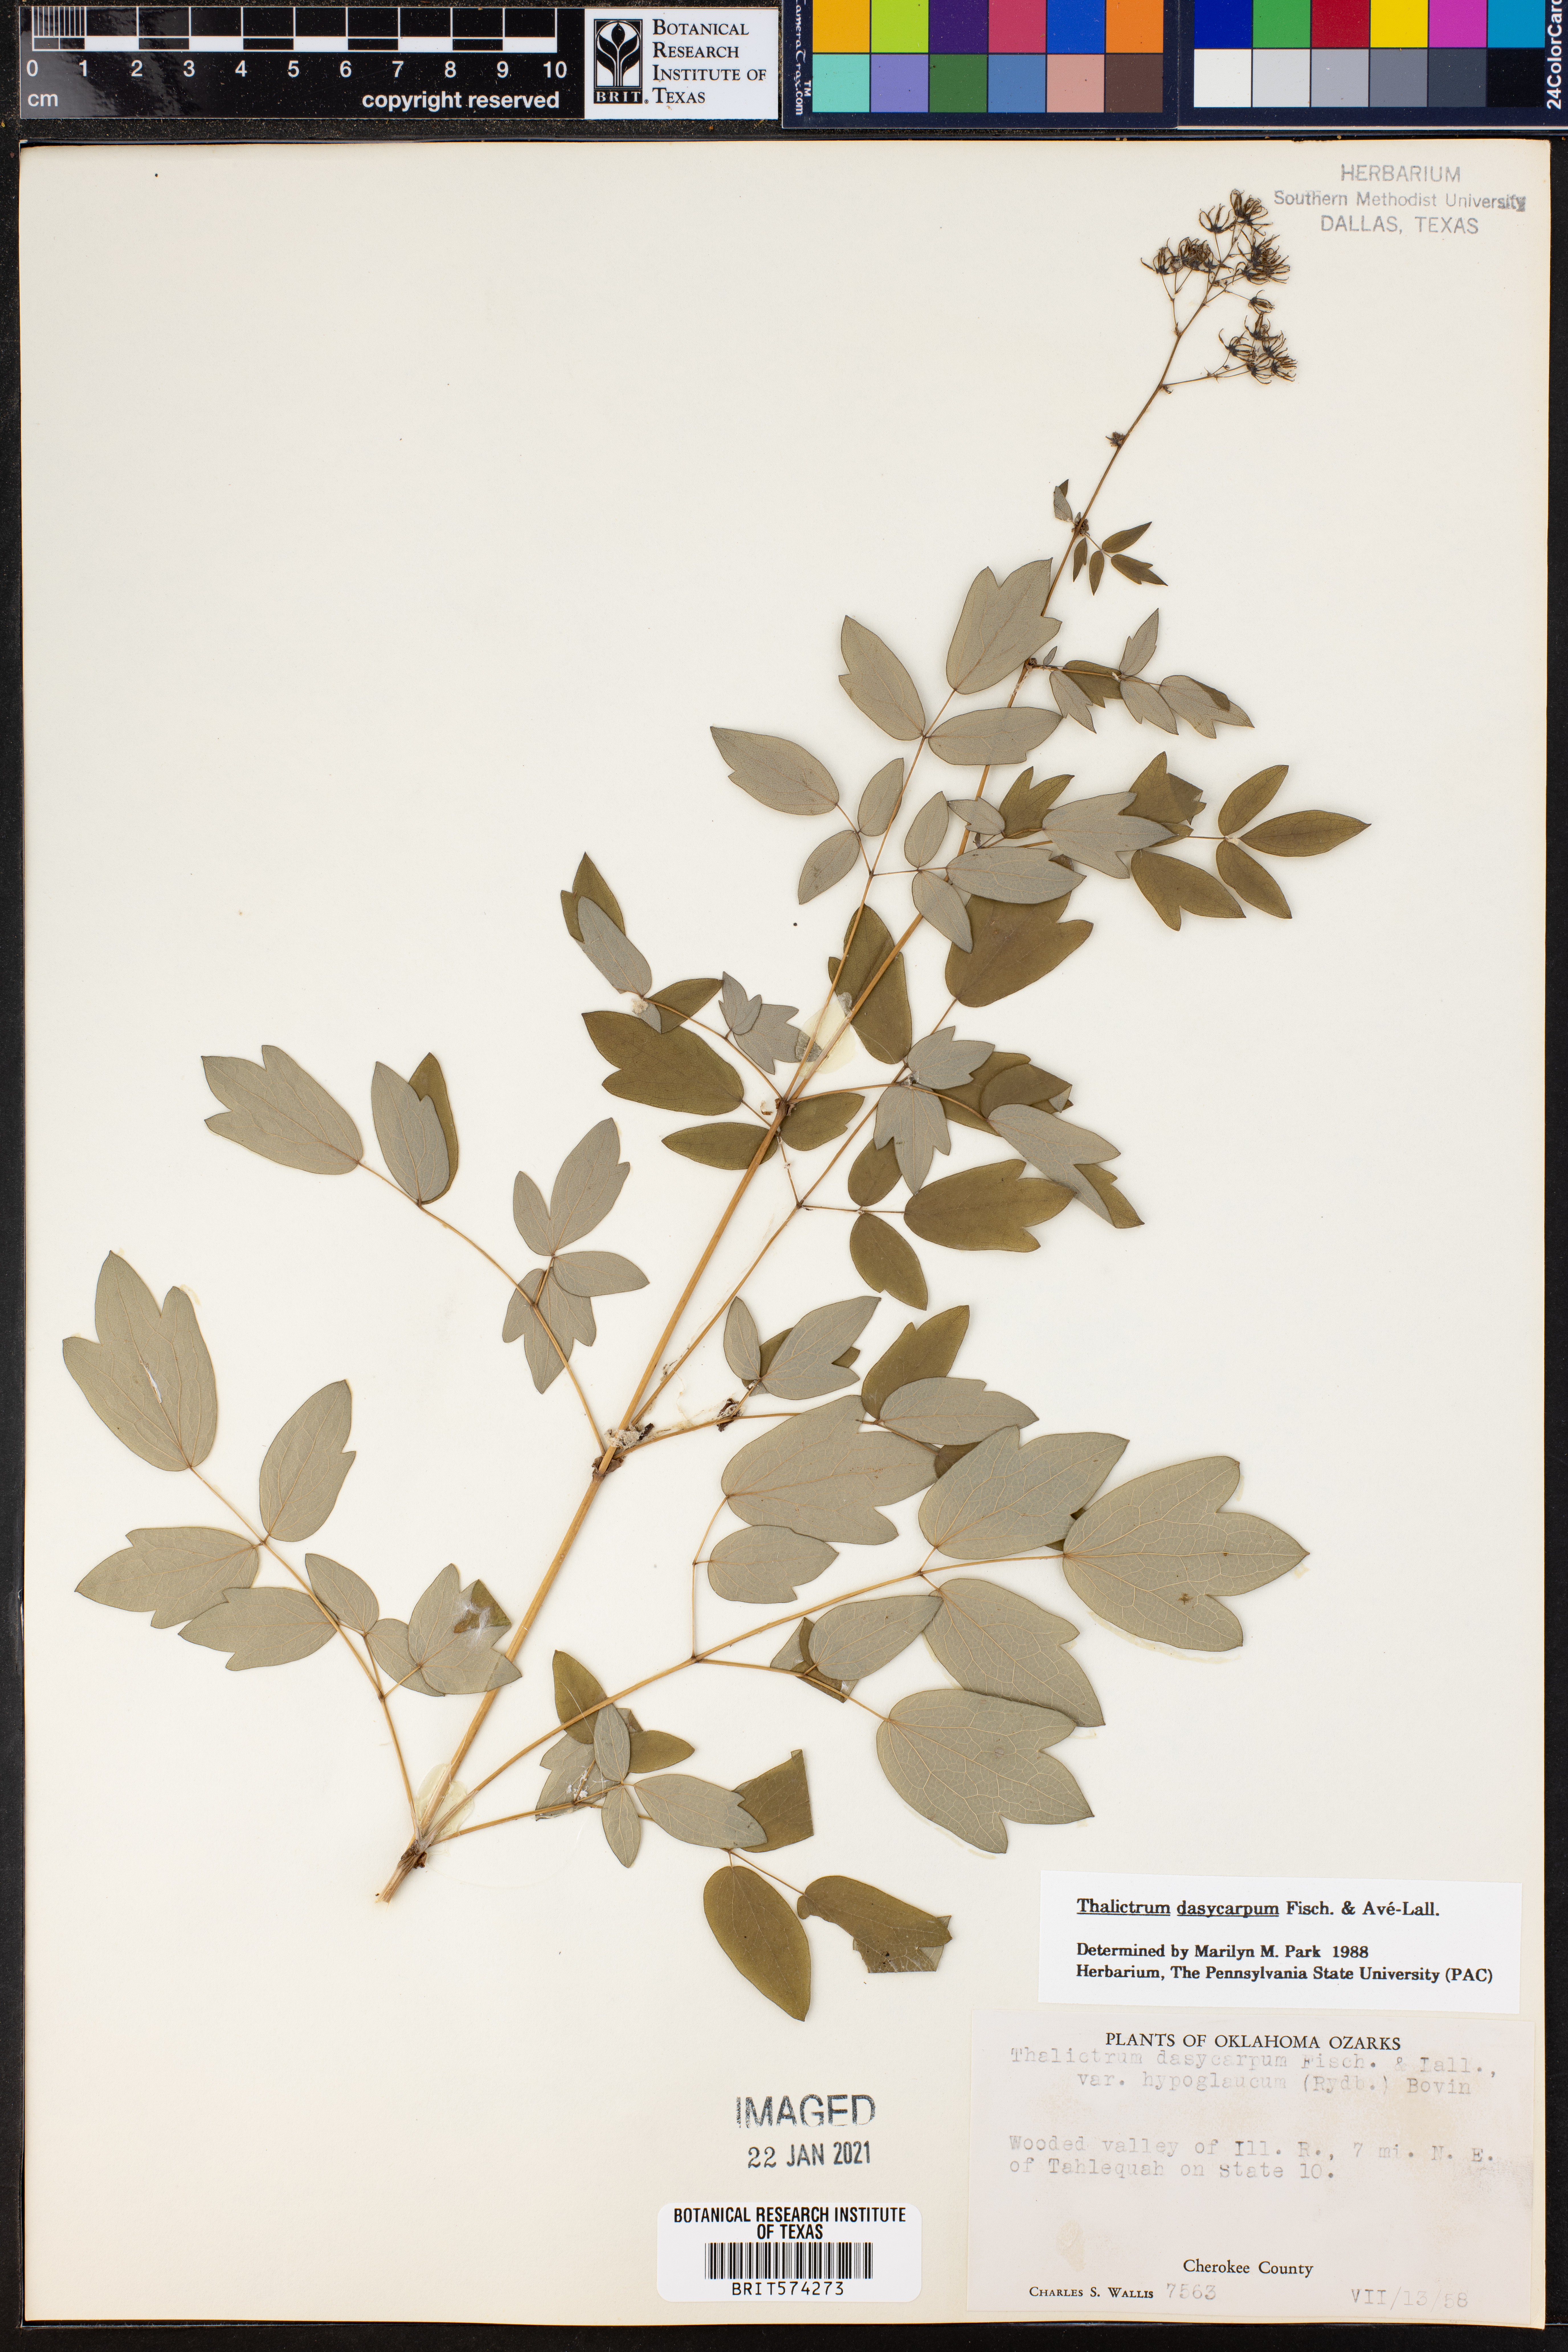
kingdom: Plantae
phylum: Tracheophyta
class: Magnoliopsida
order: Ranunculales
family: Ranunculaceae
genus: Thalictrum
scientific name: Thalictrum dasycarpum
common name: Purple meadow-rue
